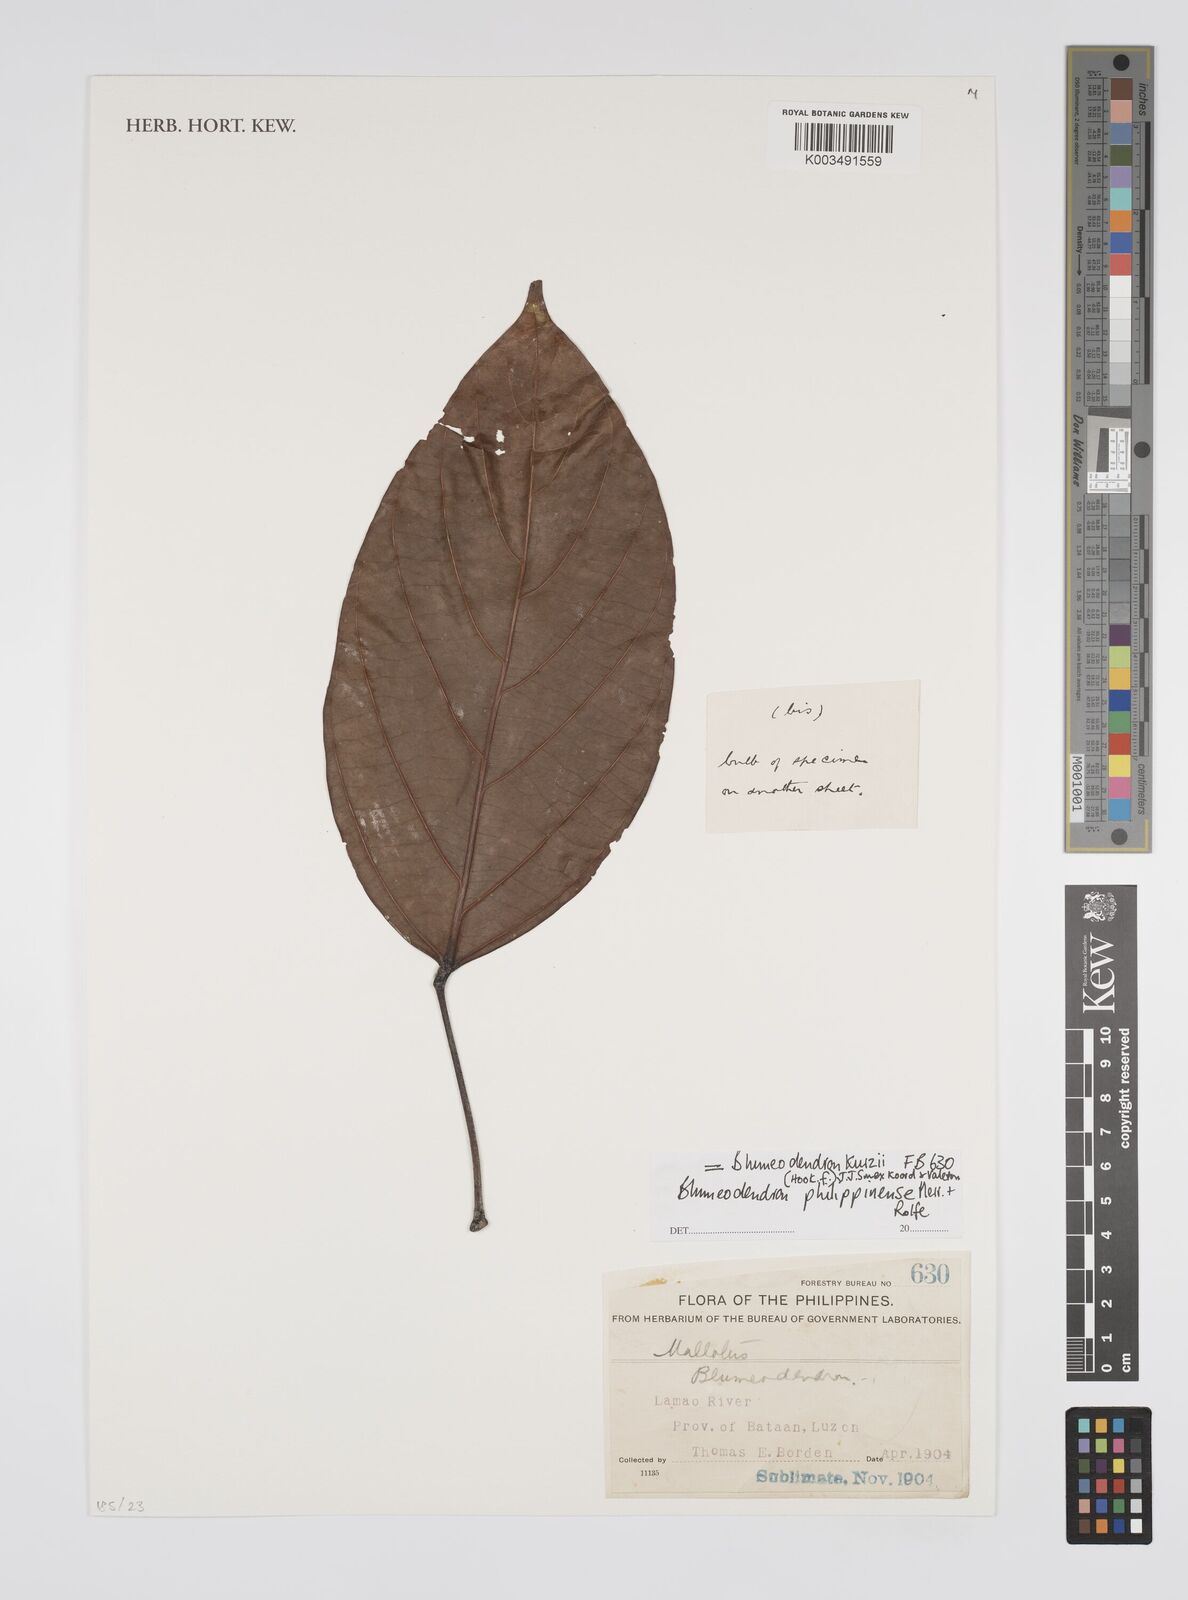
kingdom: Plantae
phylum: Tracheophyta
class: Magnoliopsida
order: Malpighiales
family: Euphorbiaceae
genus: Blumeodendron
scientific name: Blumeodendron kurzii
